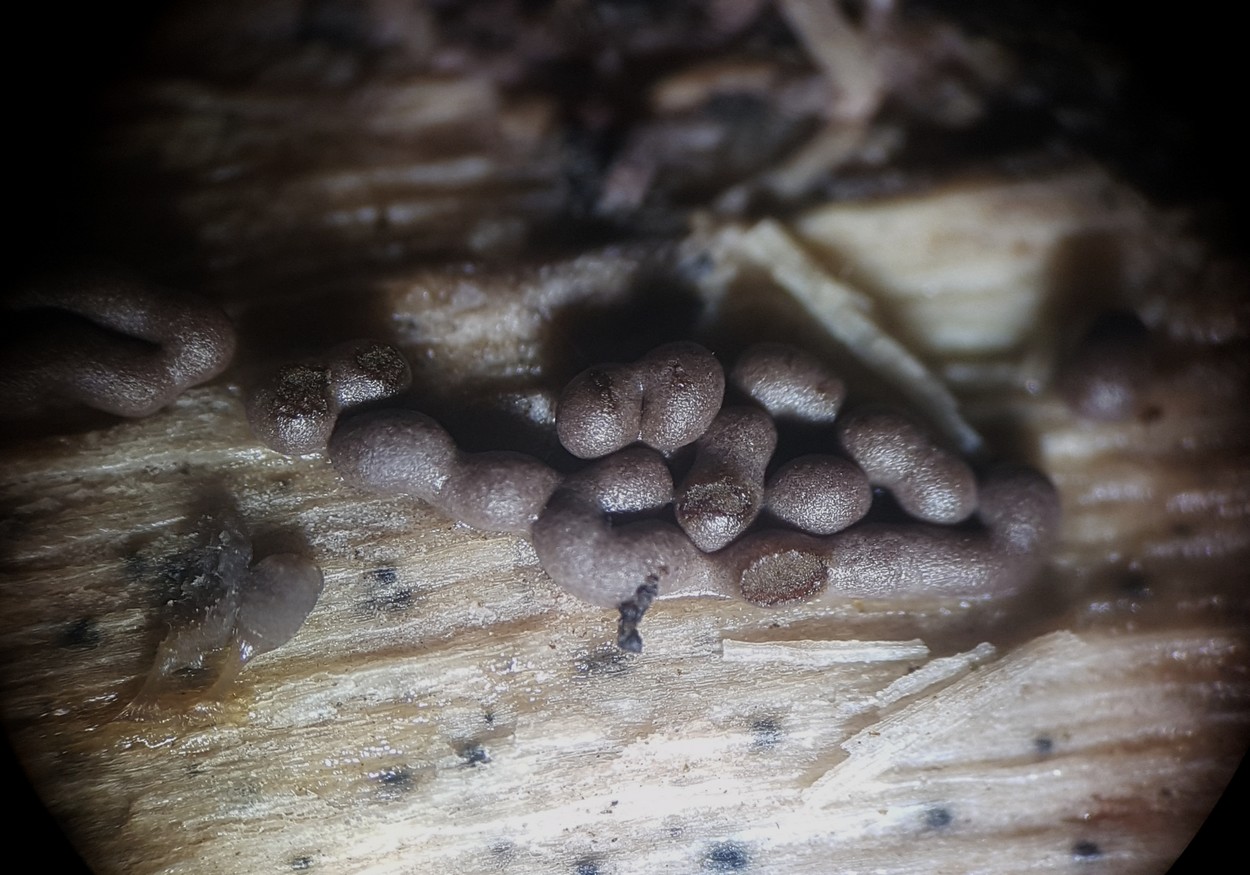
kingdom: Protozoa
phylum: Mycetozoa
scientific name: Mycetozoa
